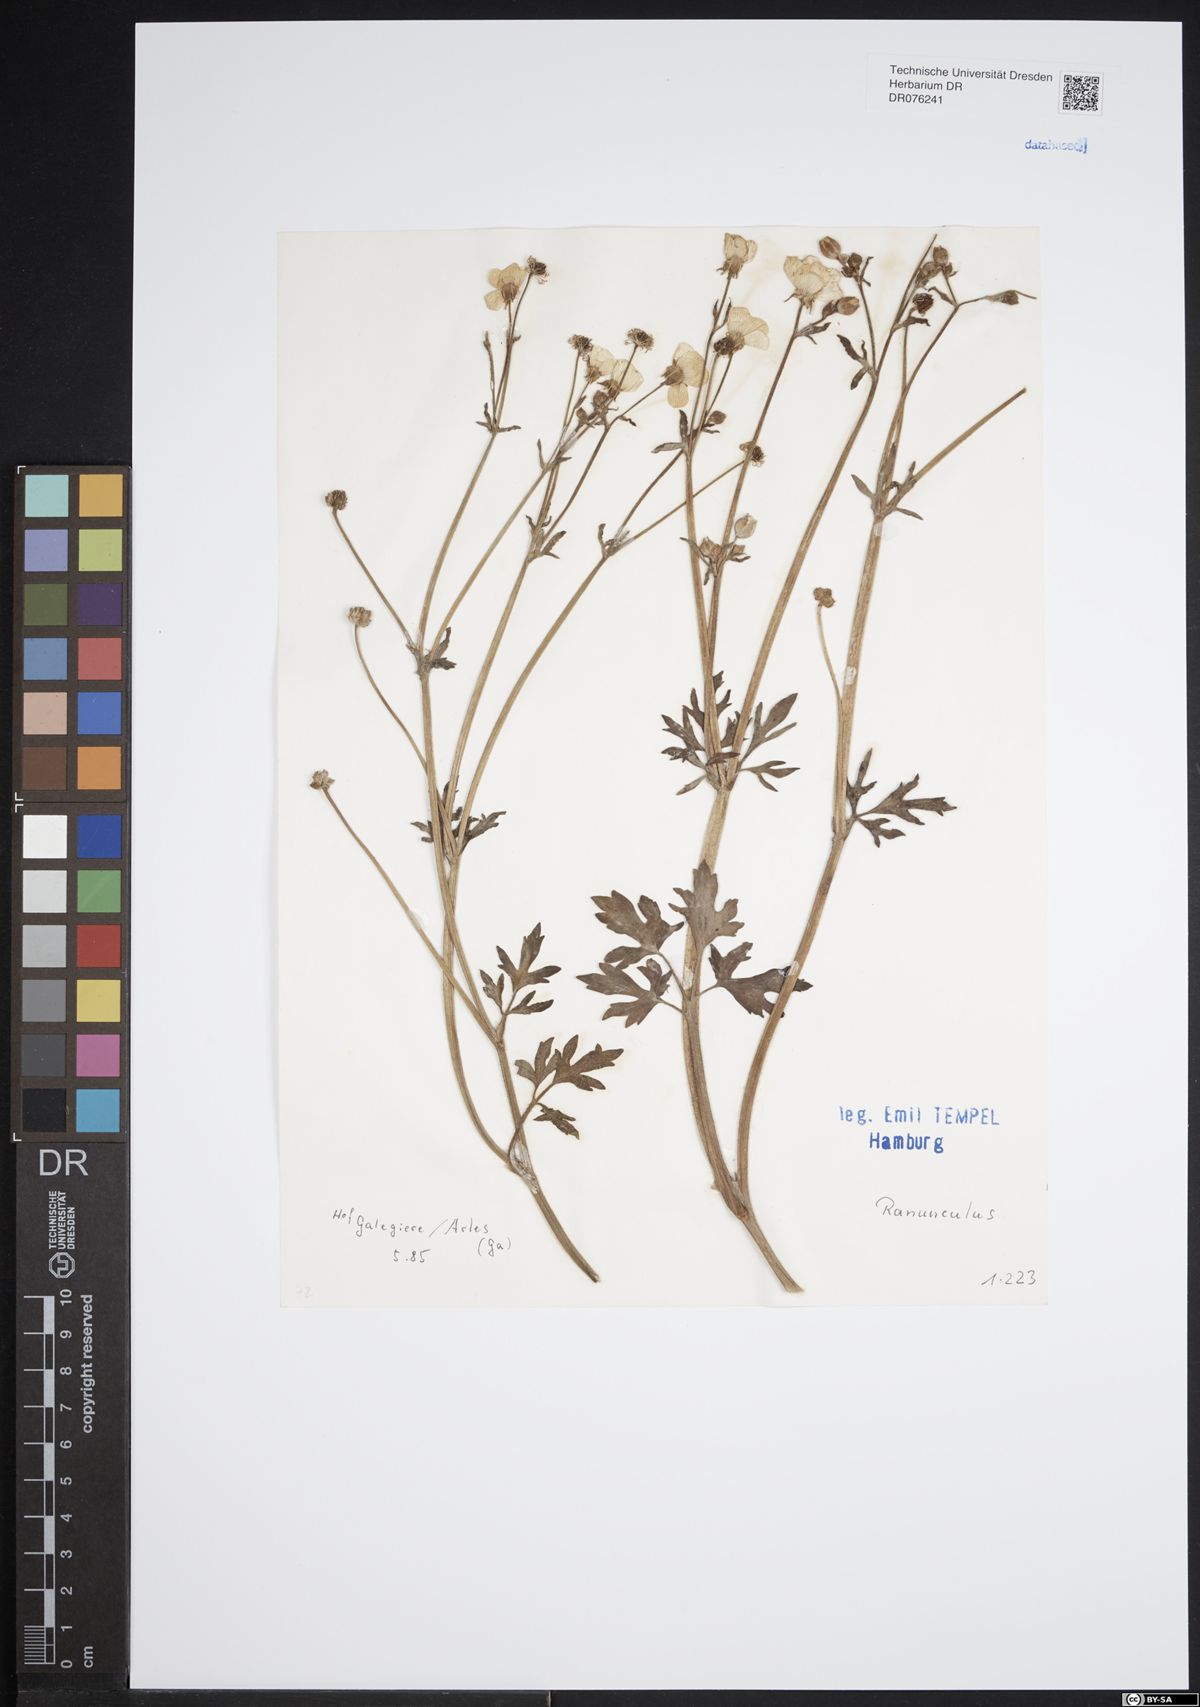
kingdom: Plantae
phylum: Tracheophyta
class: Magnoliopsida
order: Ranunculales
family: Ranunculaceae
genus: Ranunculus
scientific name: Ranunculus
